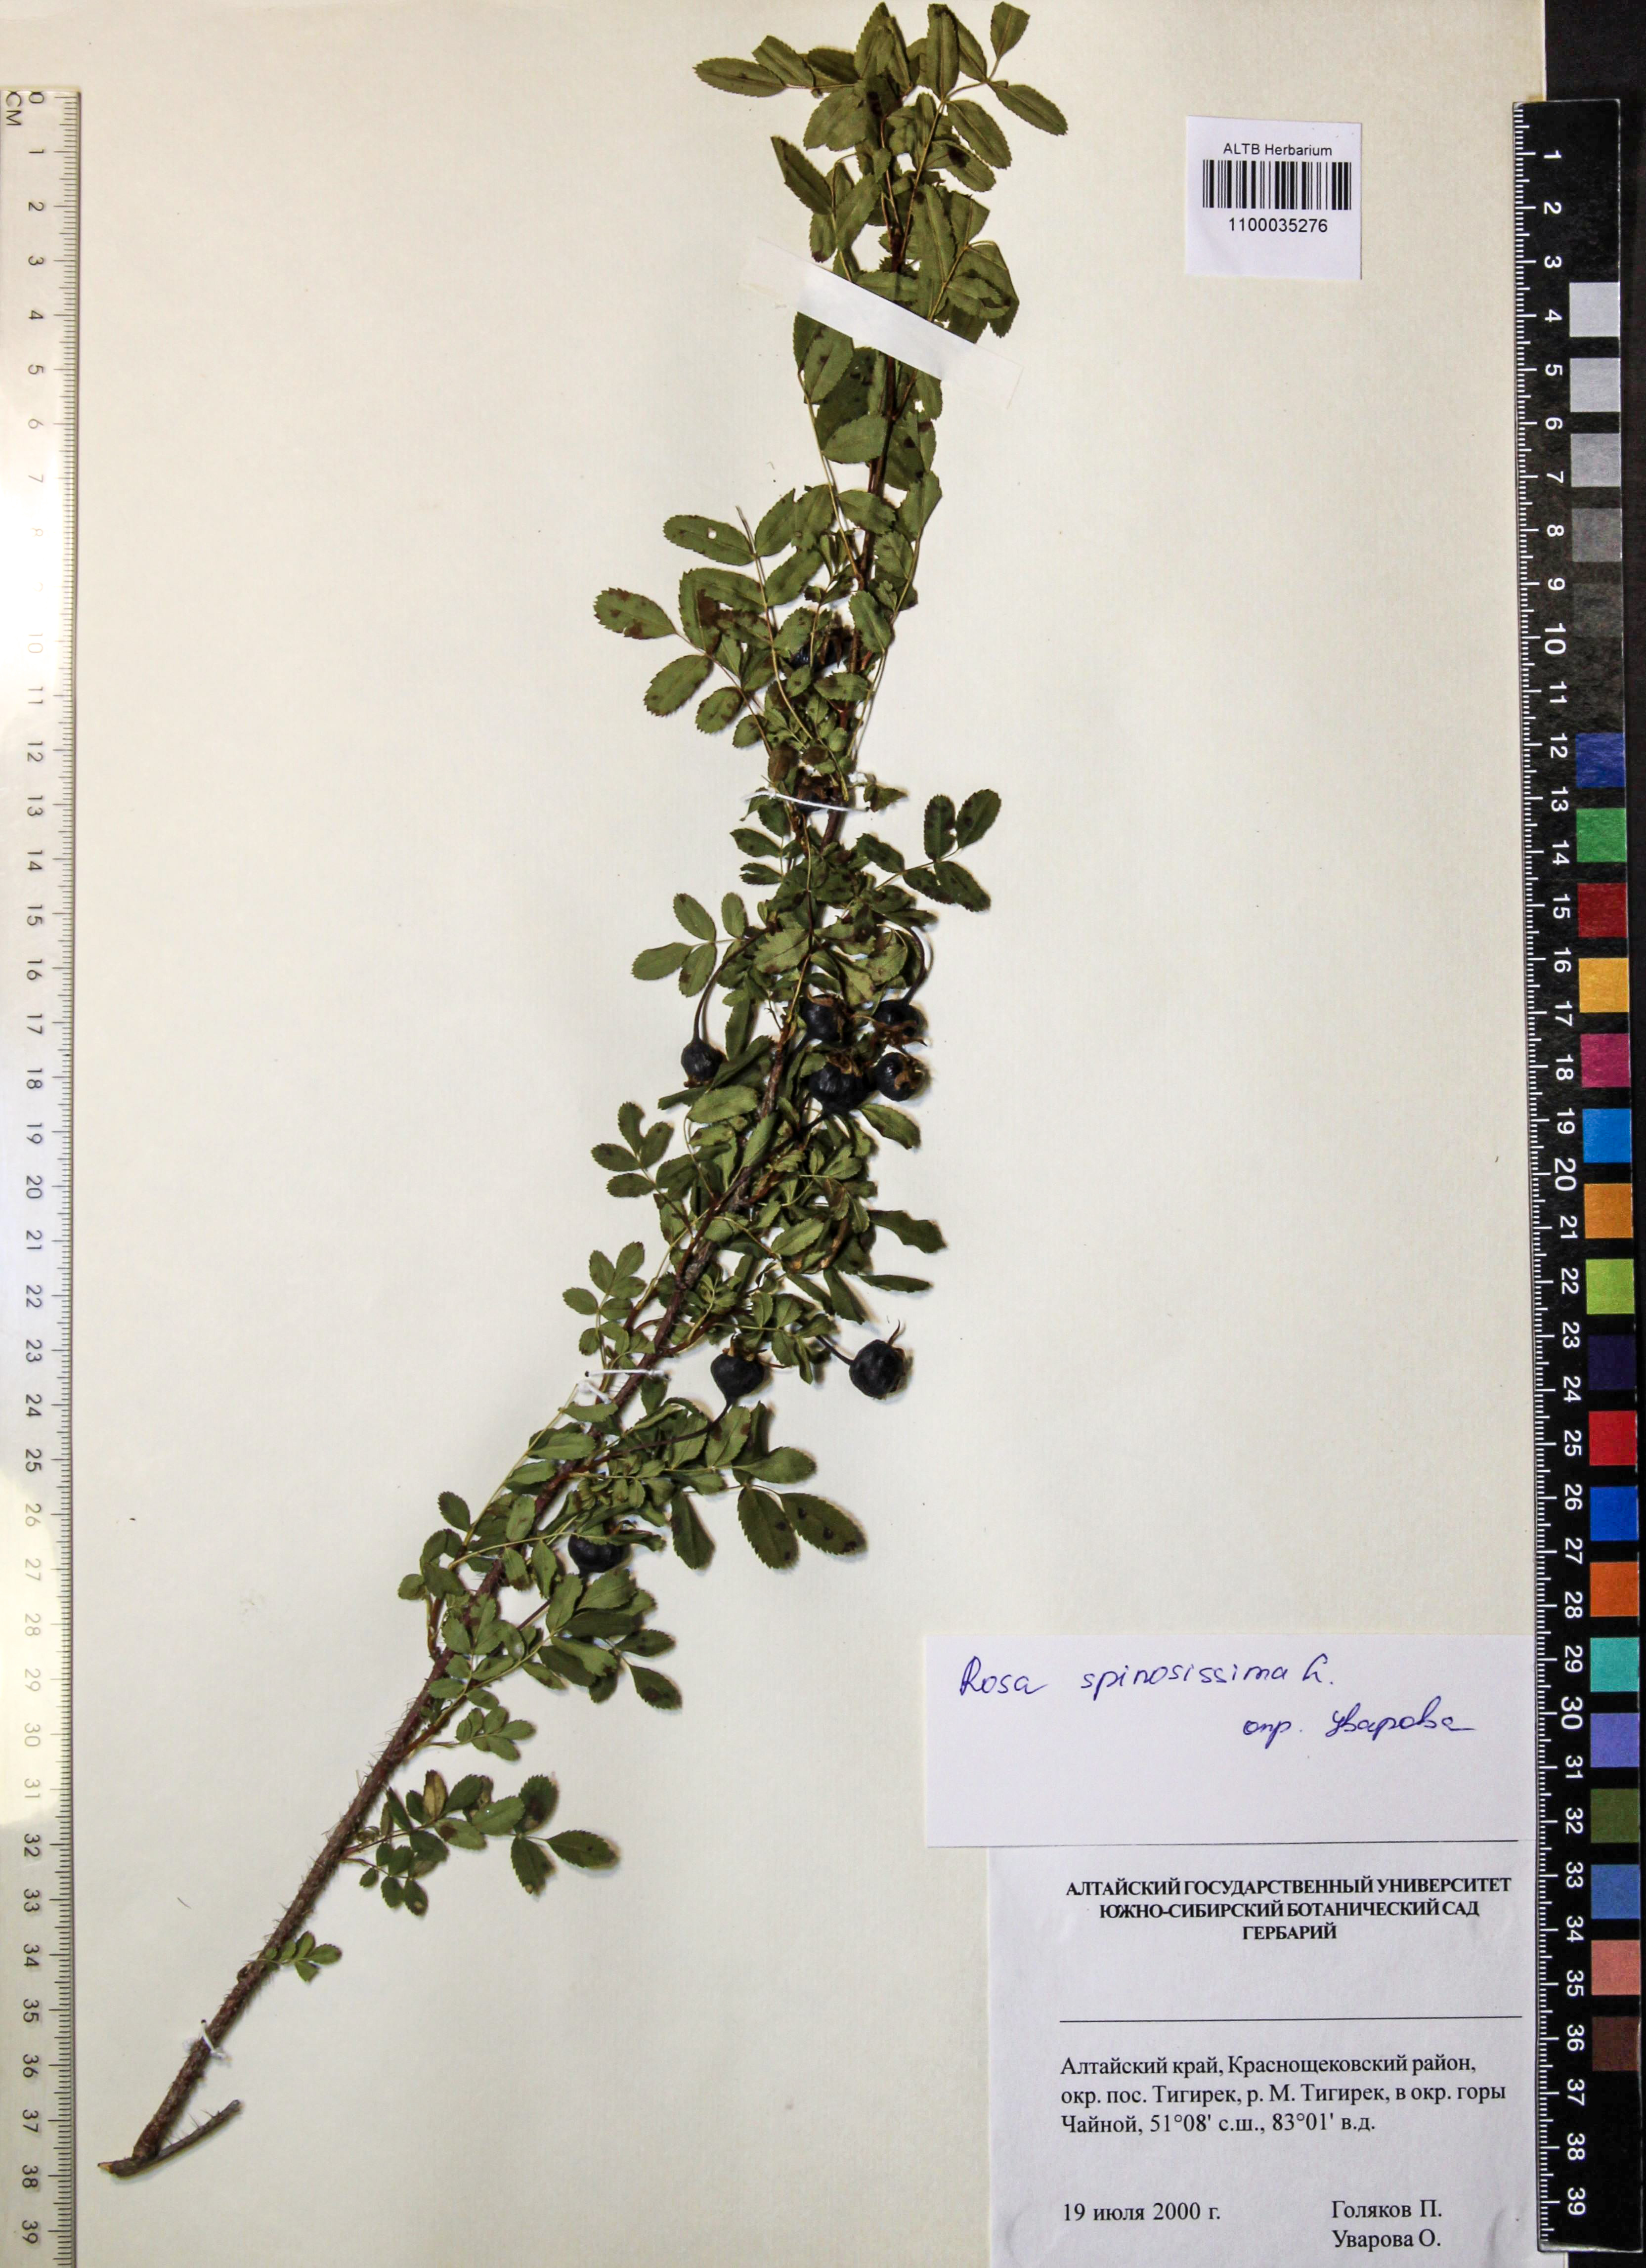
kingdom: Plantae
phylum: Tracheophyta
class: Magnoliopsida
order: Rosales
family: Rosaceae
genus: Rosa
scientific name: Rosa spinosissima
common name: Burnet rose
